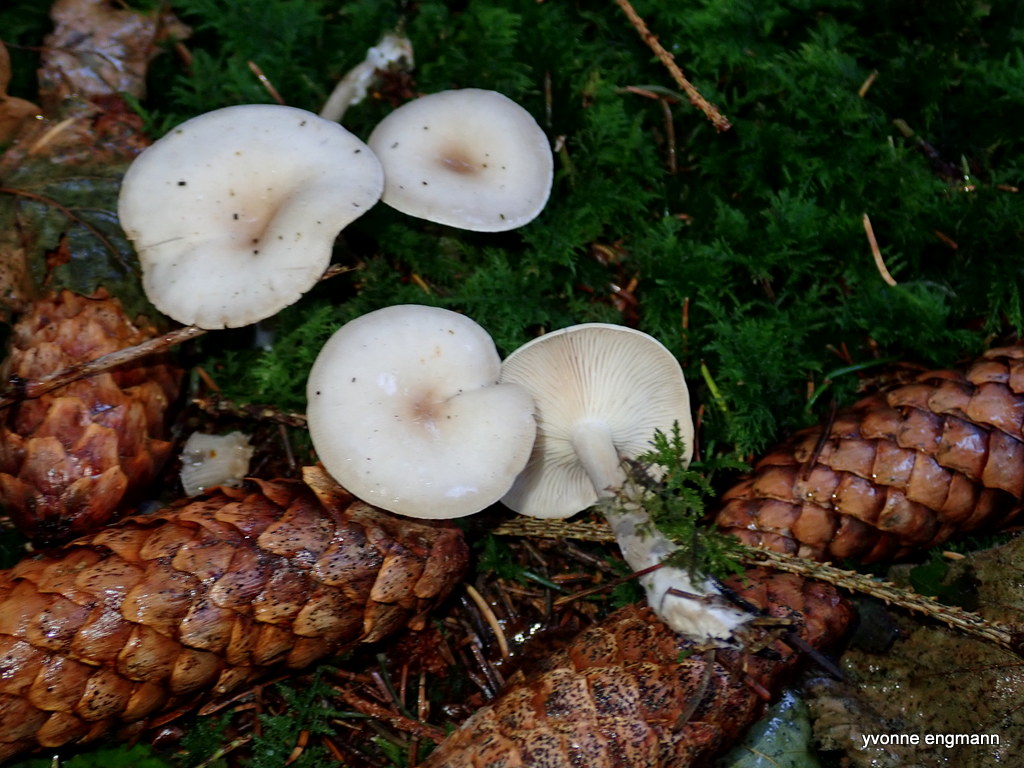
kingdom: Fungi
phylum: Basidiomycota
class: Agaricomycetes
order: Agaricales
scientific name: Agaricales
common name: champignonordenen
